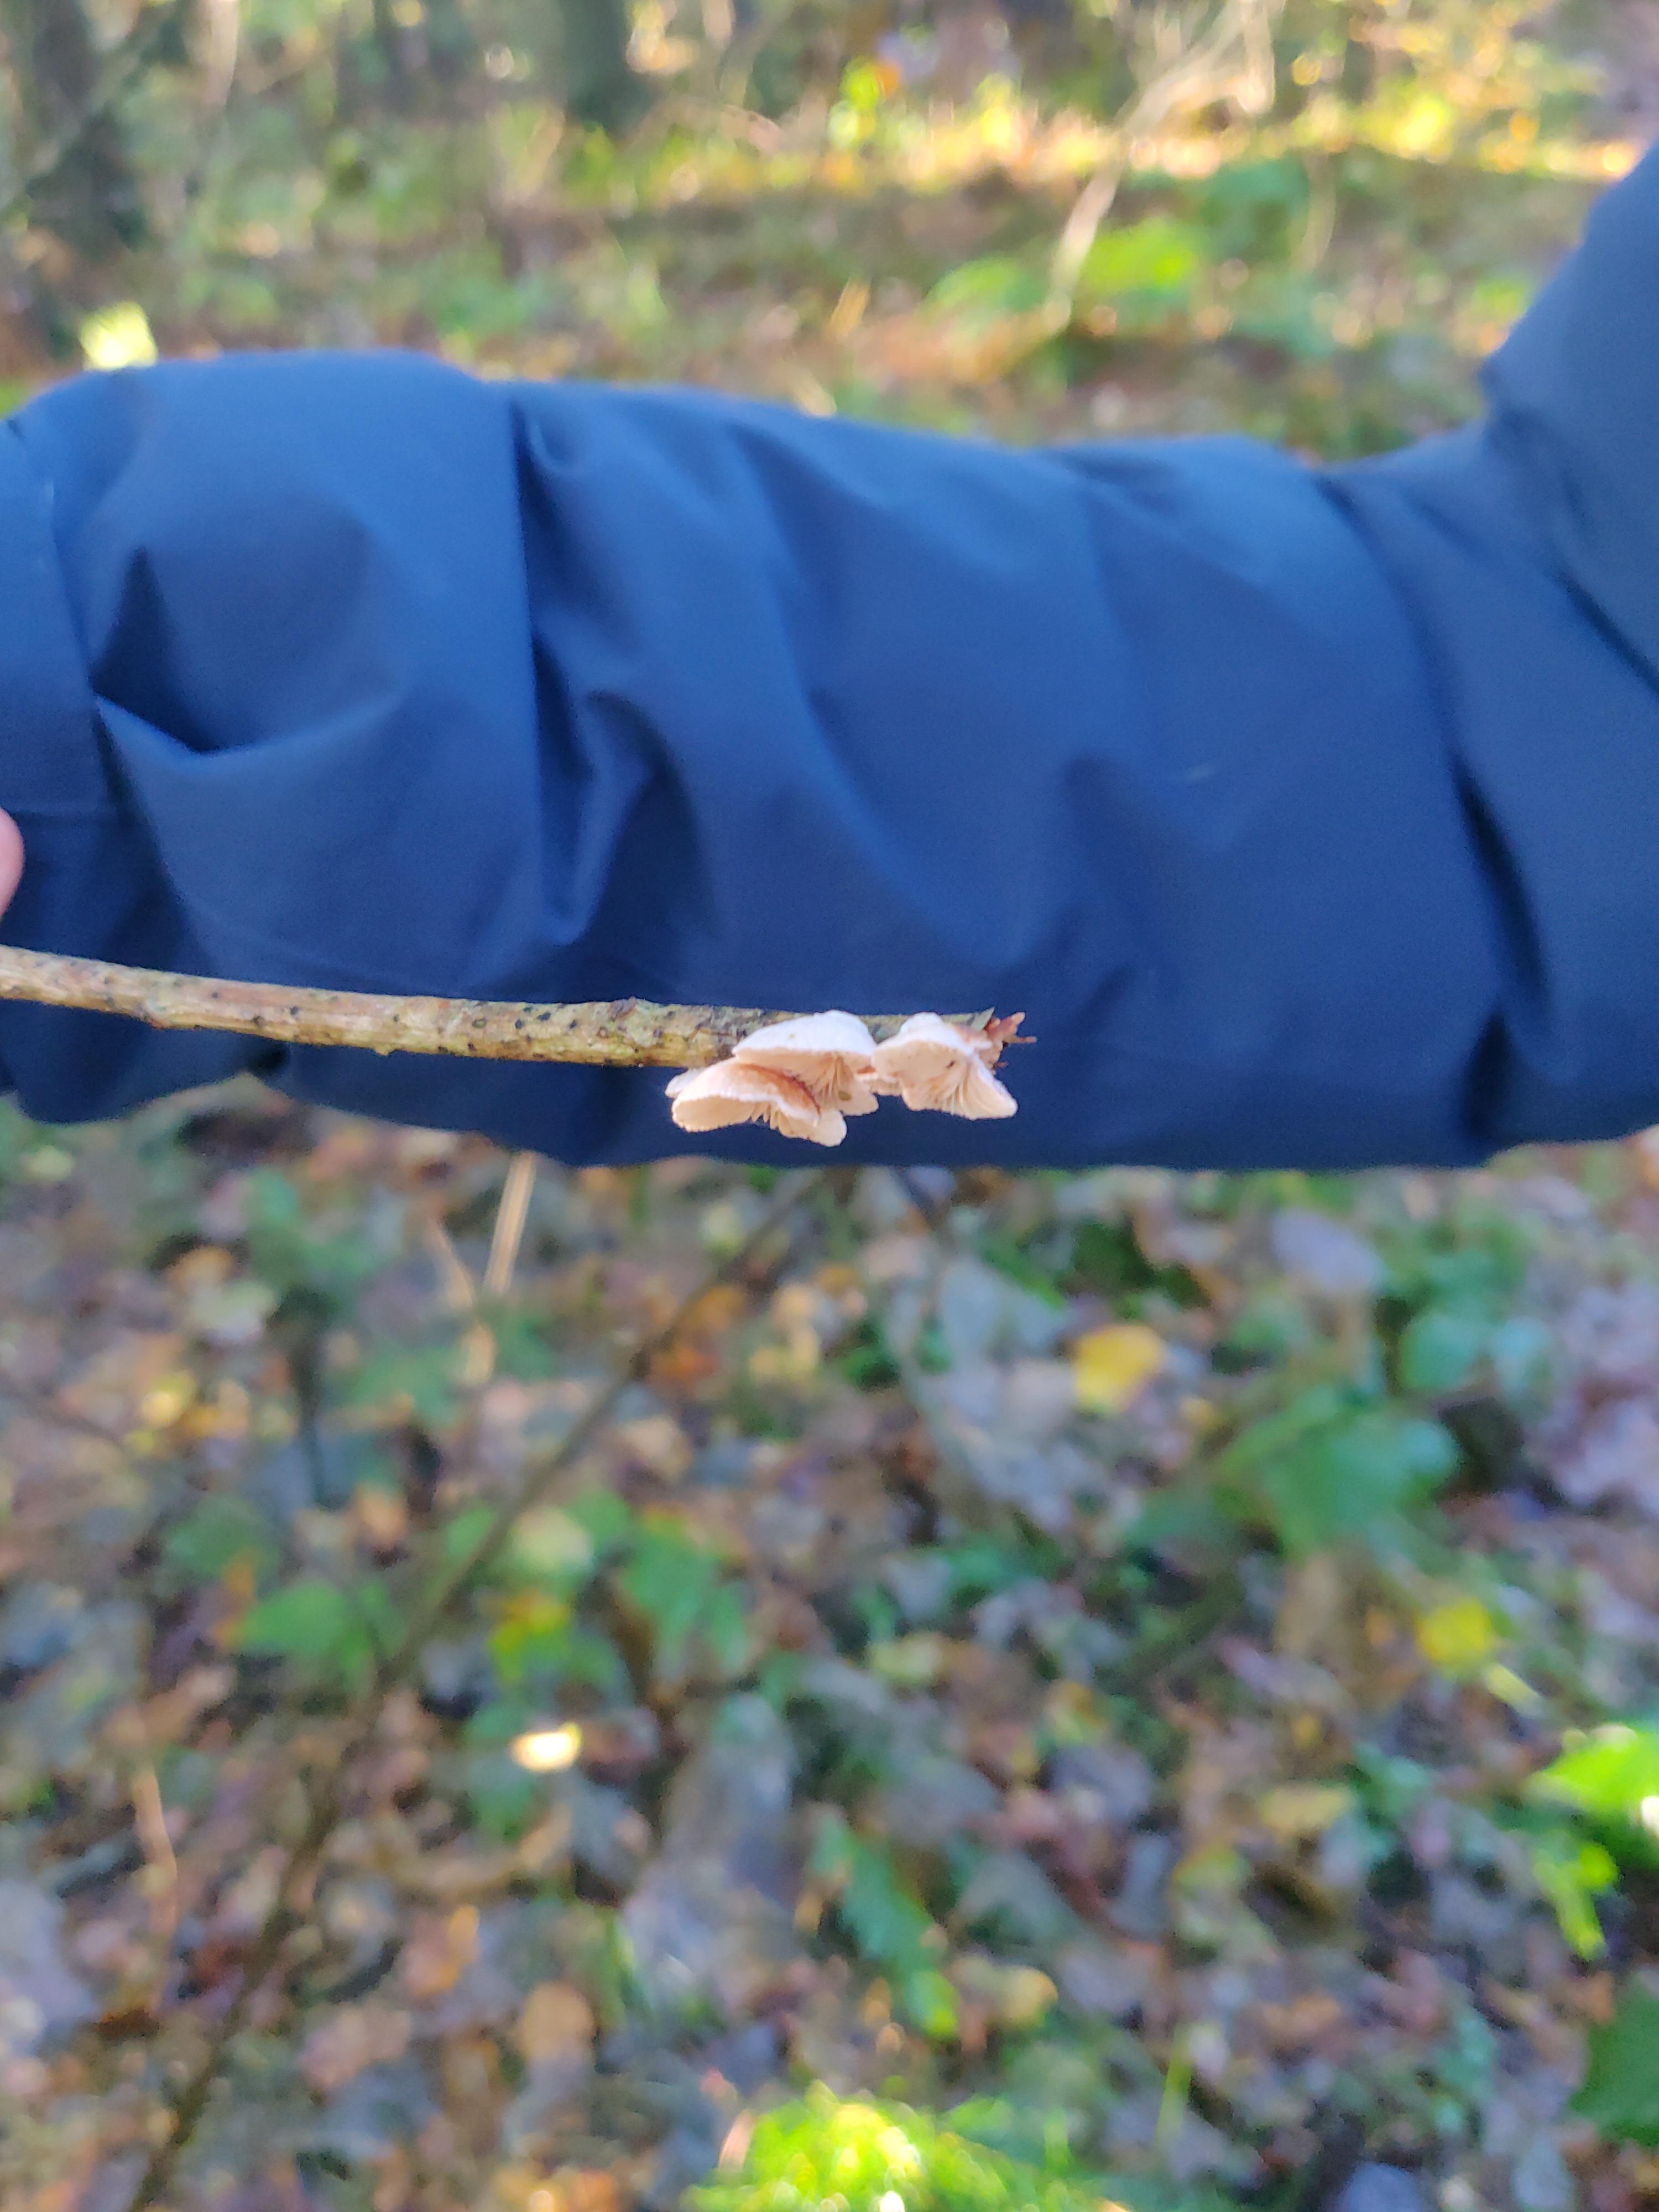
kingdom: Fungi
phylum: Basidiomycota
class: Agaricomycetes
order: Agaricales
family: Crepidotaceae
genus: Crepidotus
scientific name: Crepidotus
